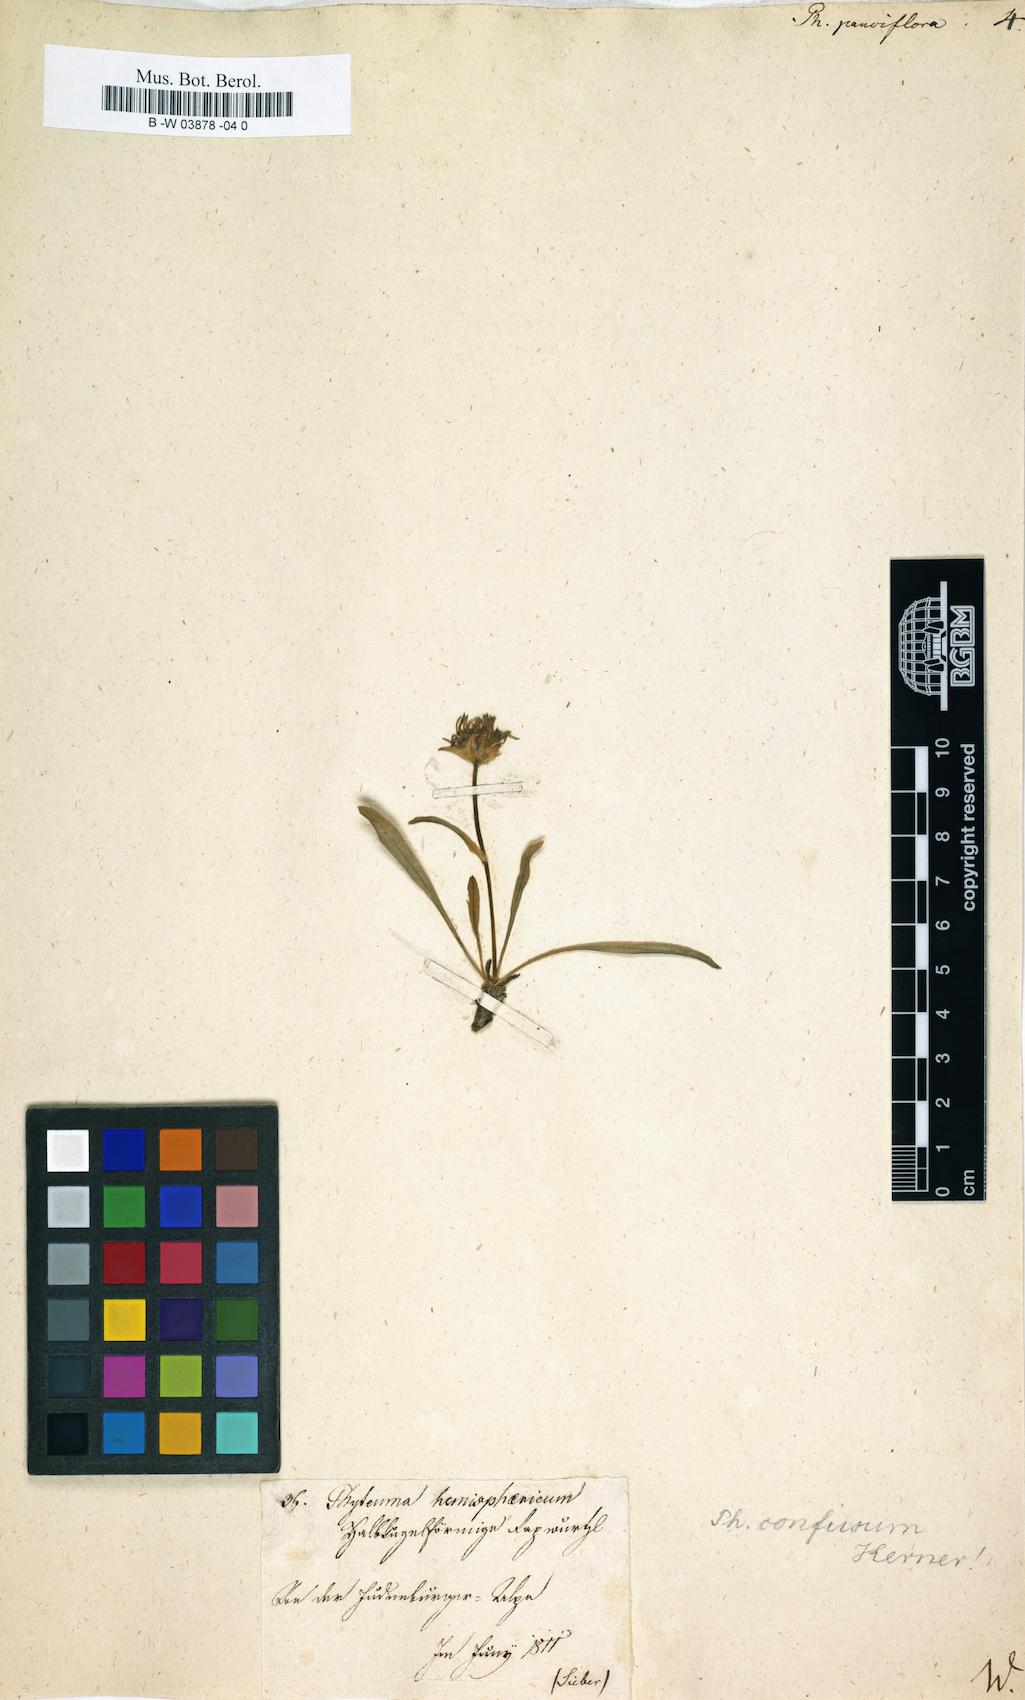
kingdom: Plantae
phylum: Tracheophyta
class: Magnoliopsida
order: Asterales
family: Campanulaceae
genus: Phyteuma
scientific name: Phyteuma globulariifolium
